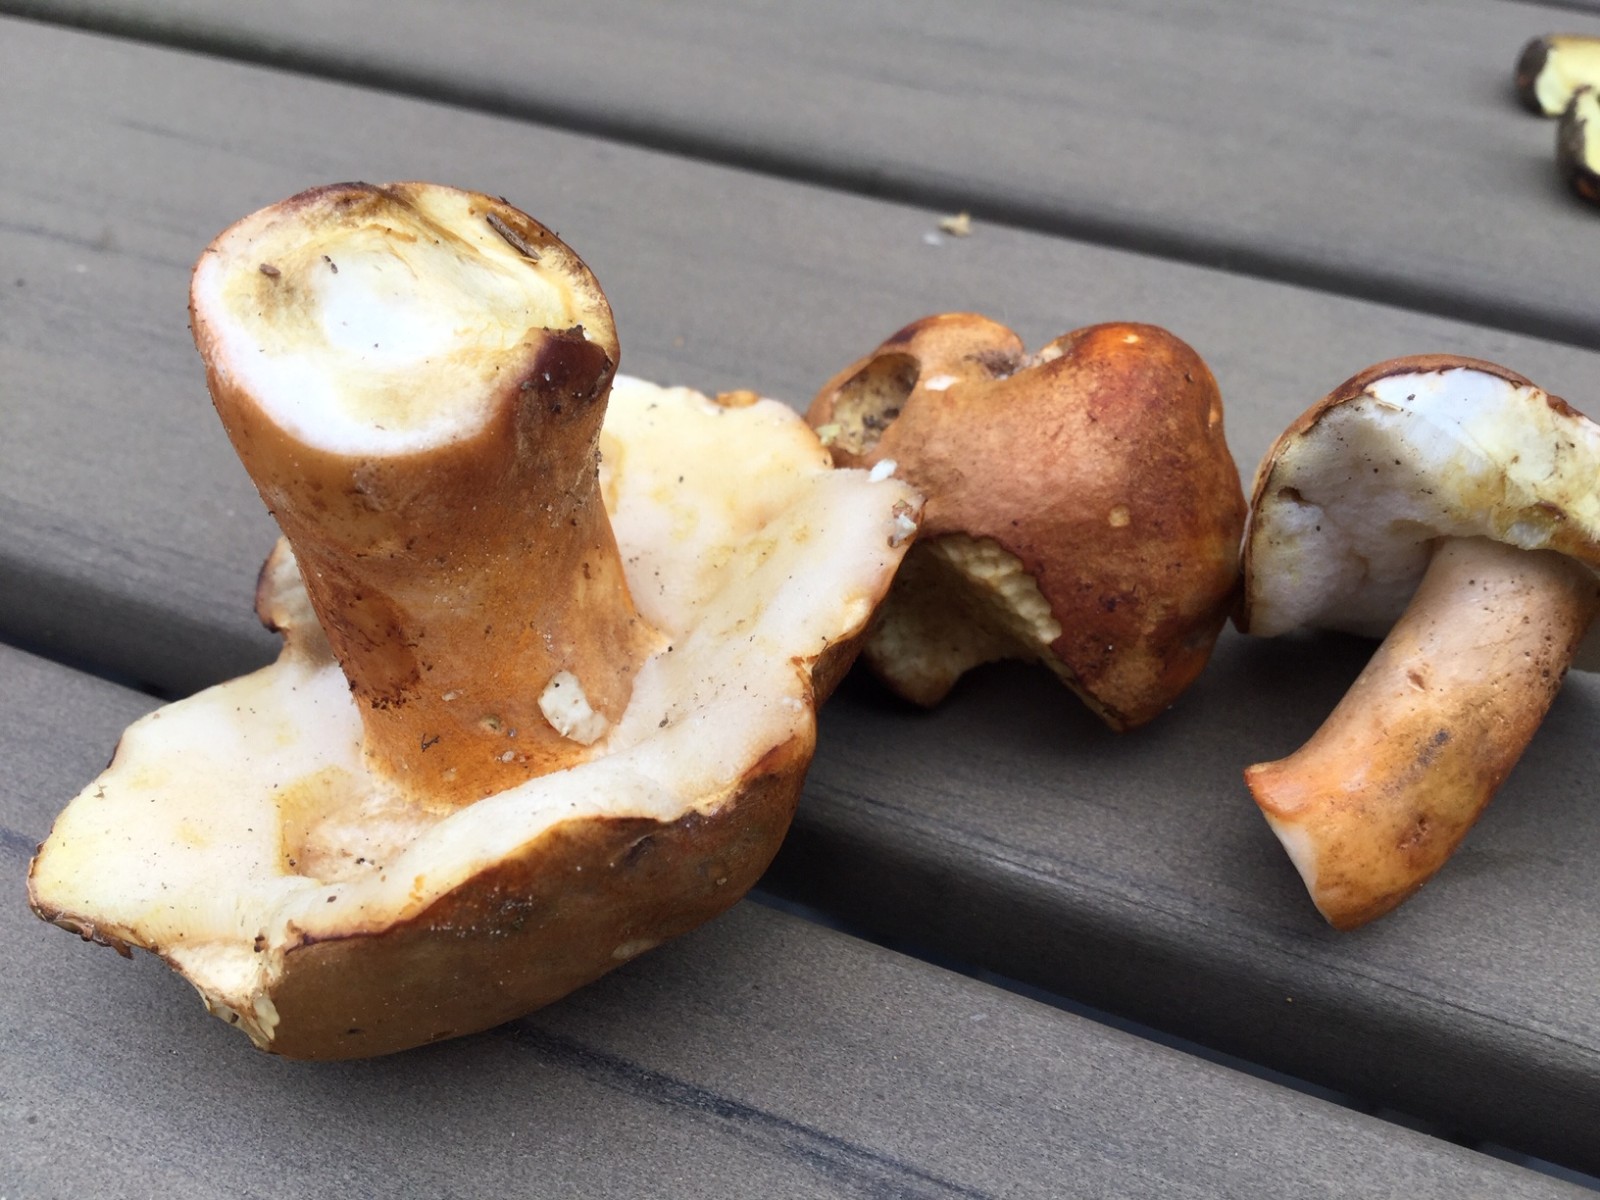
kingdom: Fungi
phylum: Basidiomycota
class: Agaricomycetes
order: Boletales
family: Gyroporaceae
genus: Gyroporus
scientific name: Gyroporus castaneus
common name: kastanie-kammerrørhat
